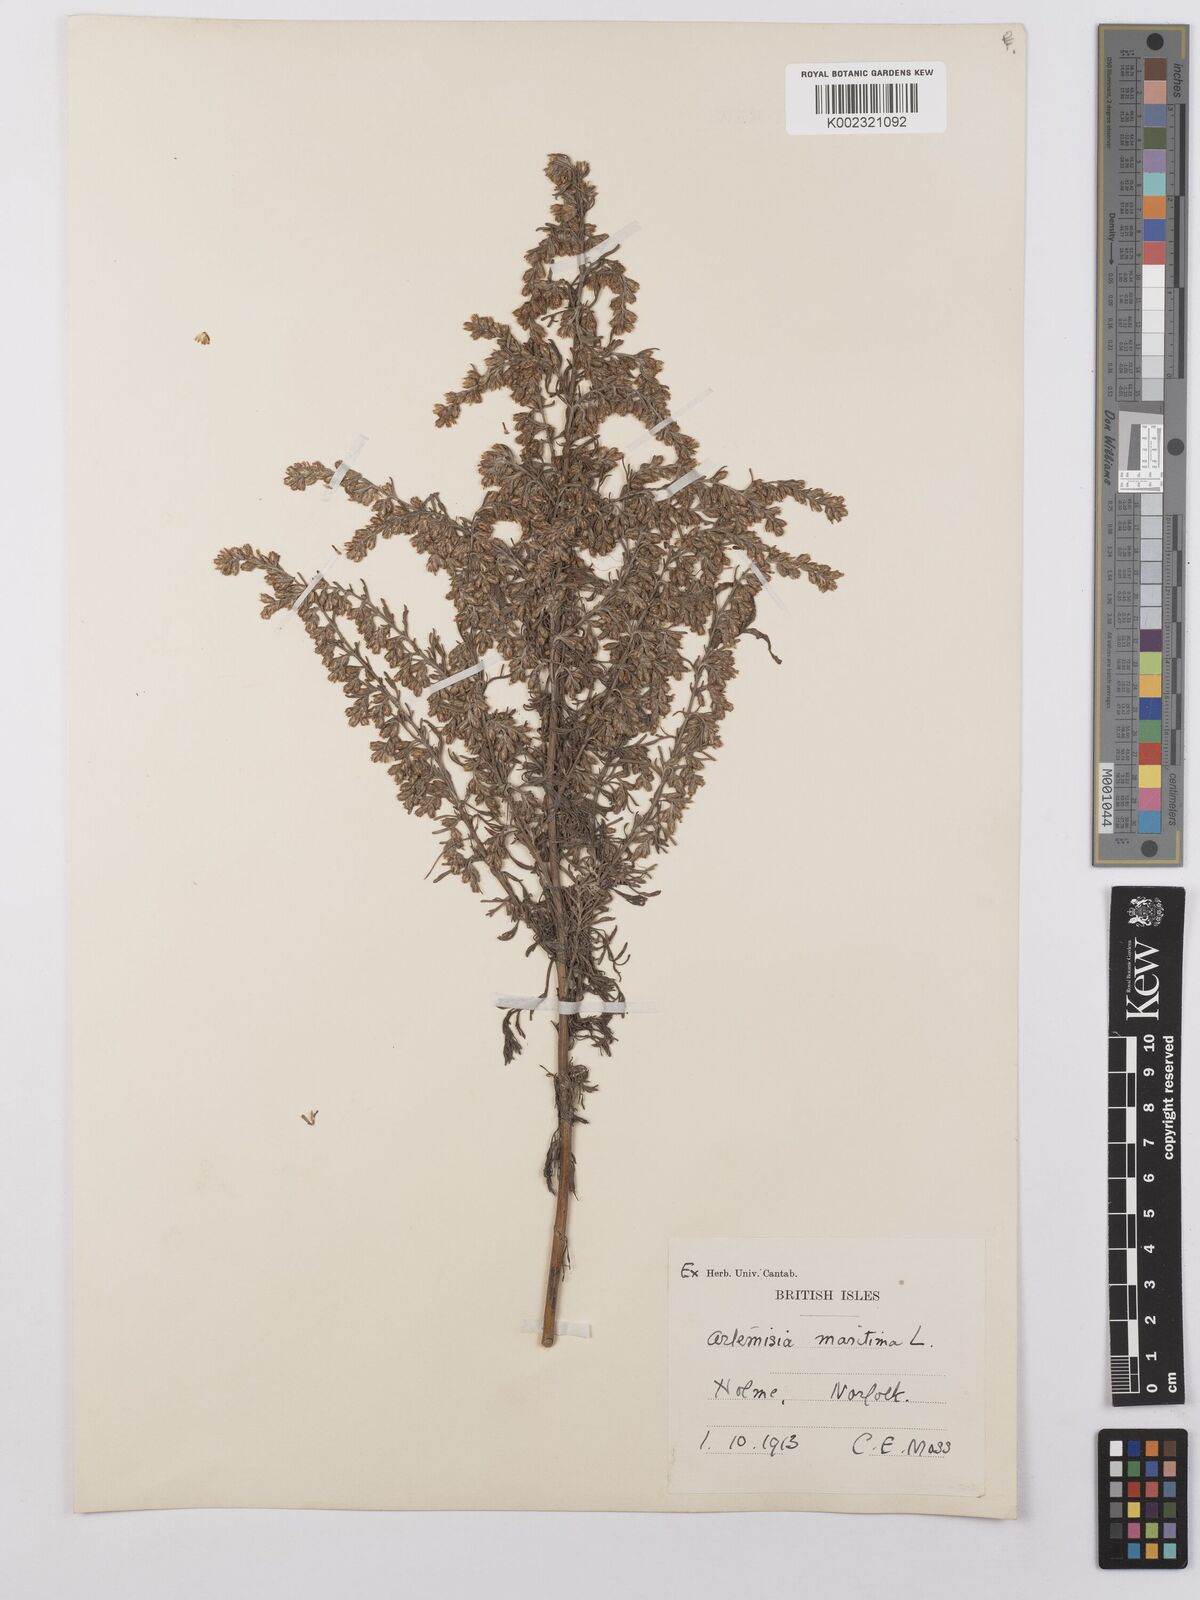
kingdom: Plantae
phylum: Tracheophyta
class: Magnoliopsida
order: Asterales
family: Asteraceae
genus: Artemisia
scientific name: Artemisia maritima
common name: Wormseed
